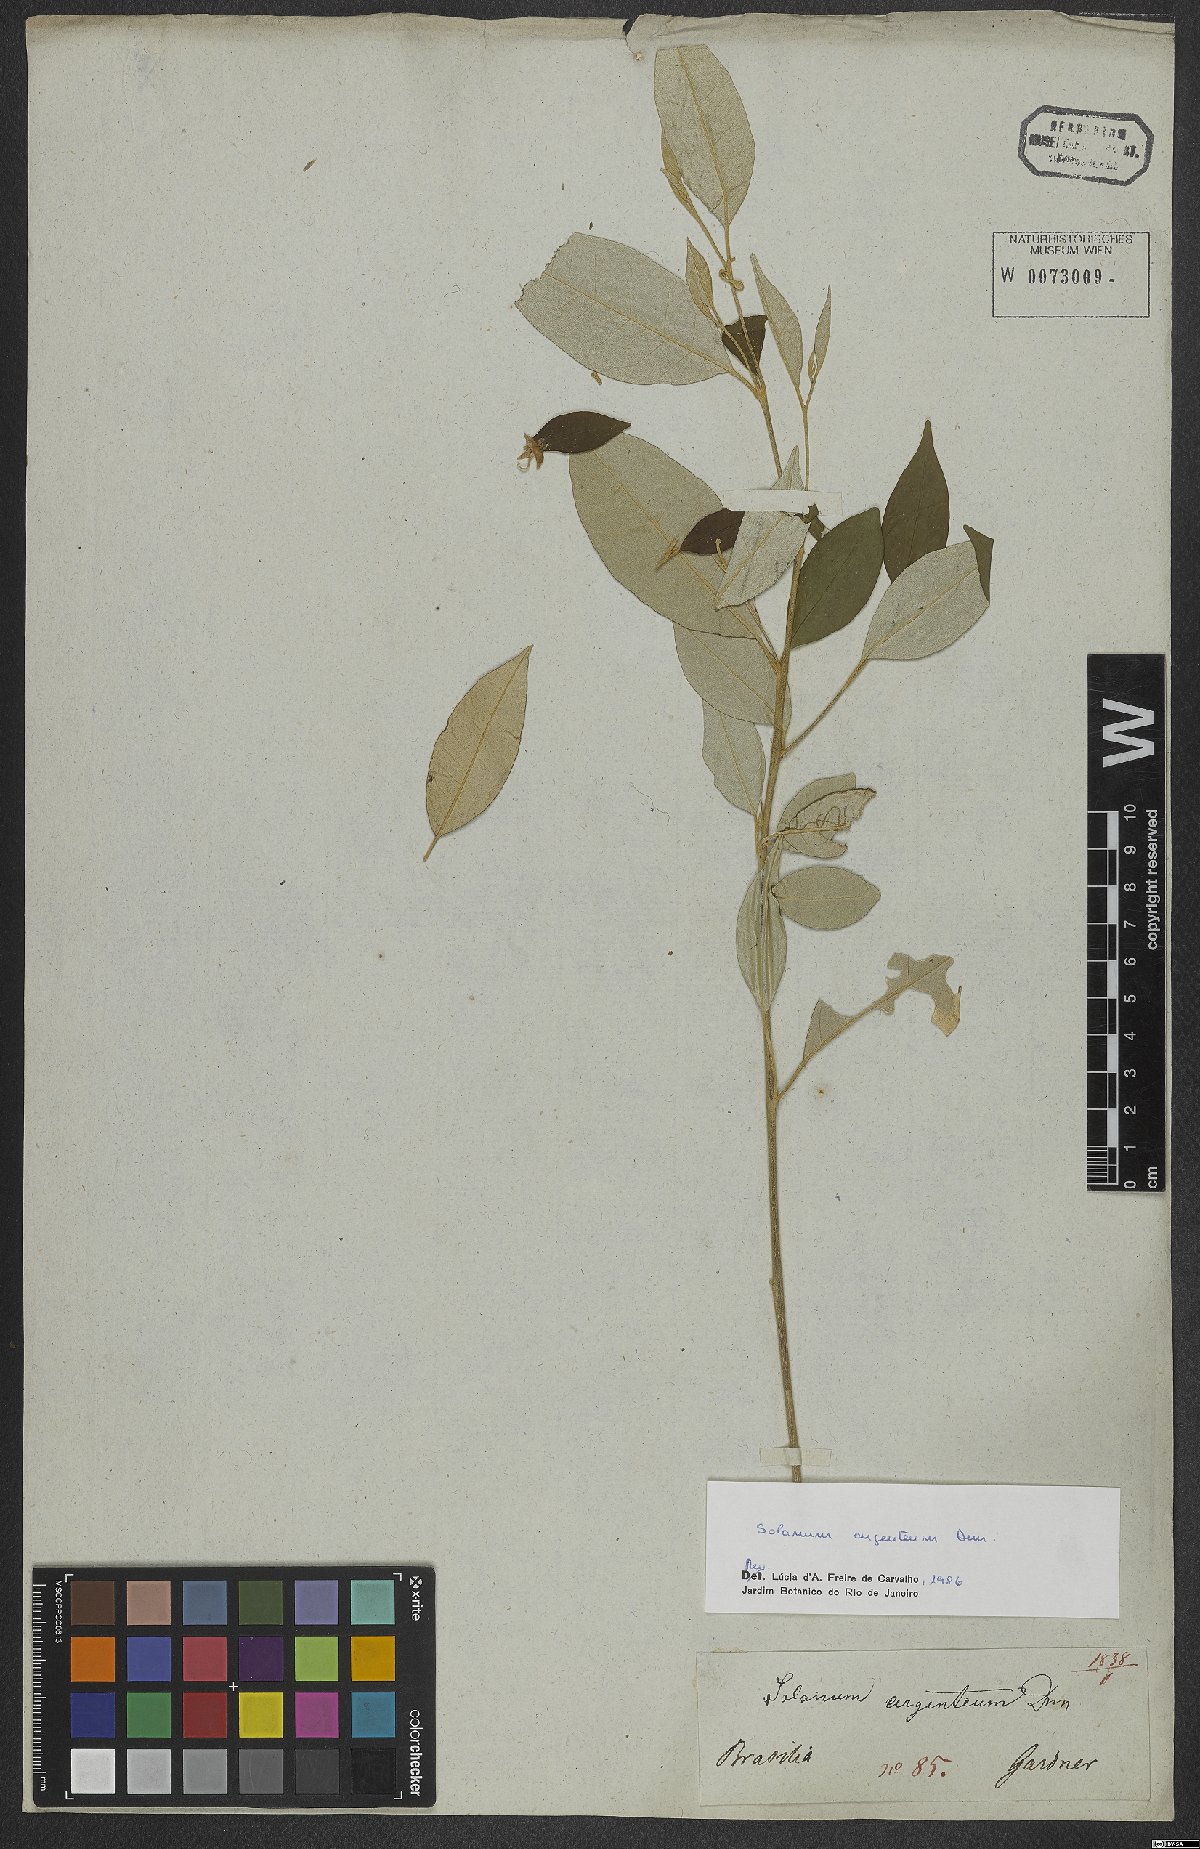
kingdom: Plantae
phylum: Tracheophyta
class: Magnoliopsida
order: Solanales
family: Solanaceae
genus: Solanum
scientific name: Solanum swartzianum
